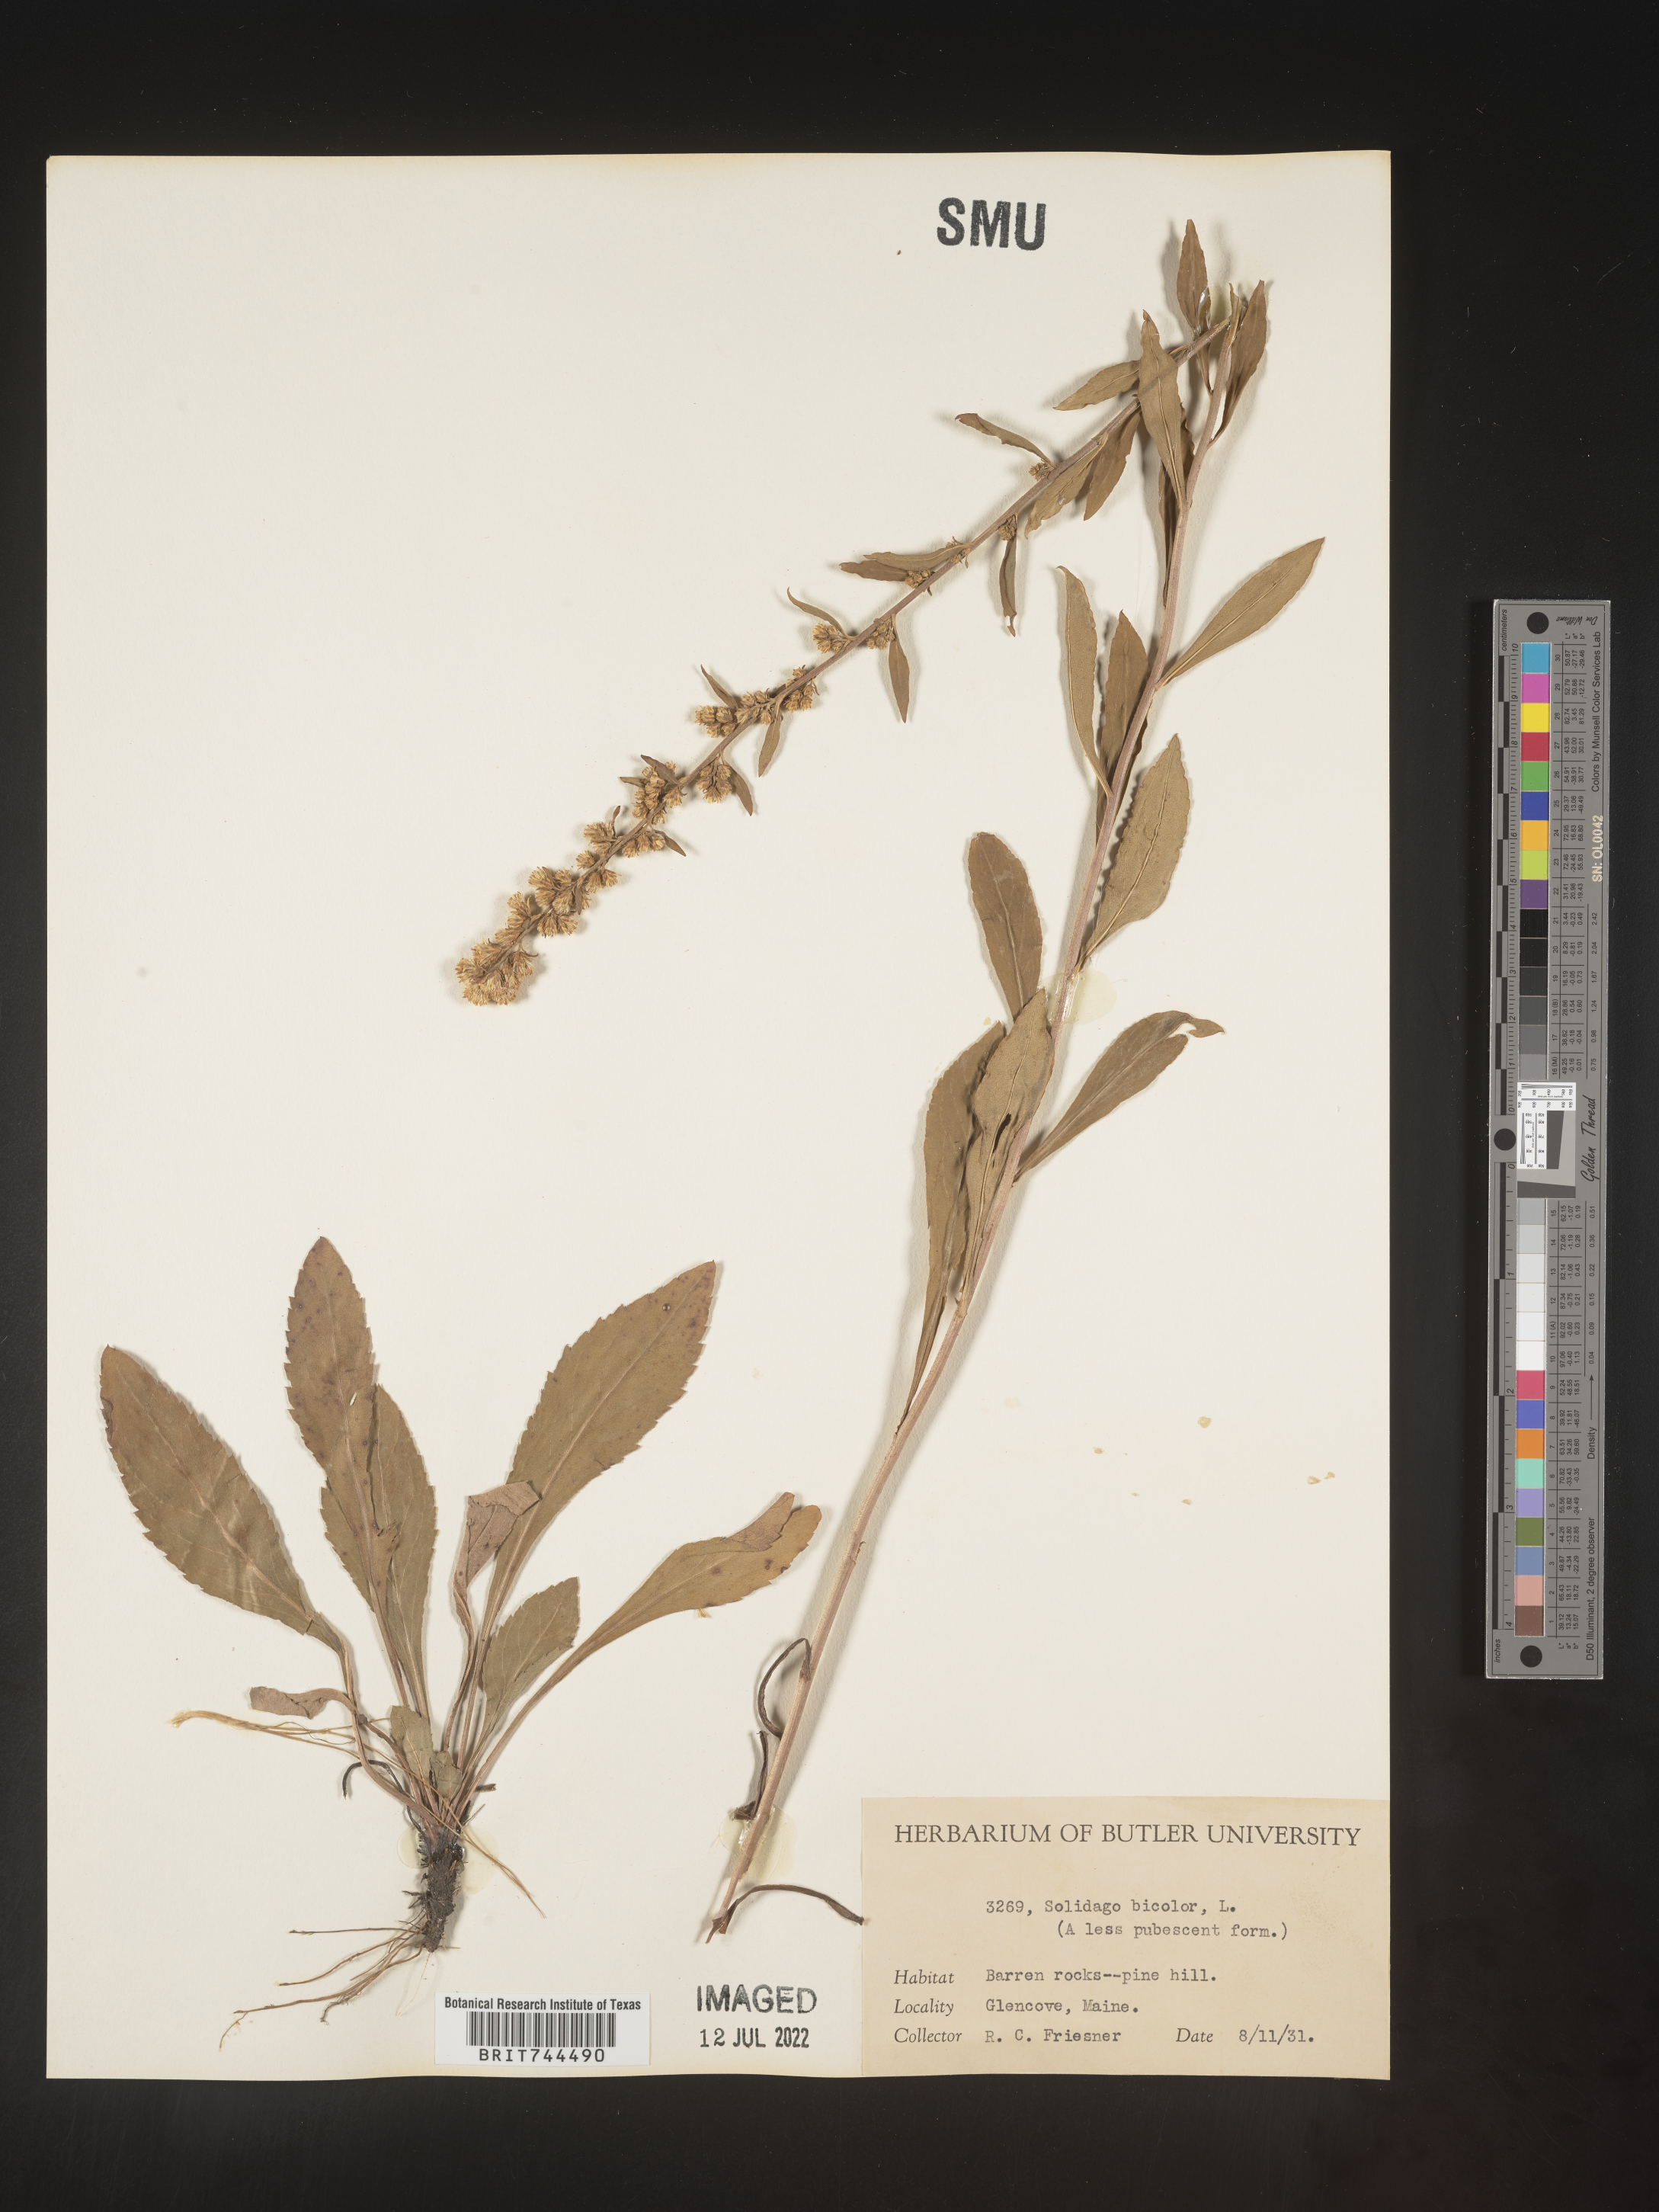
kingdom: Plantae
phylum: Tracheophyta
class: Magnoliopsida
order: Asterales
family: Asteraceae
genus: Solidago
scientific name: Solidago bicolor
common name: Silverrod
